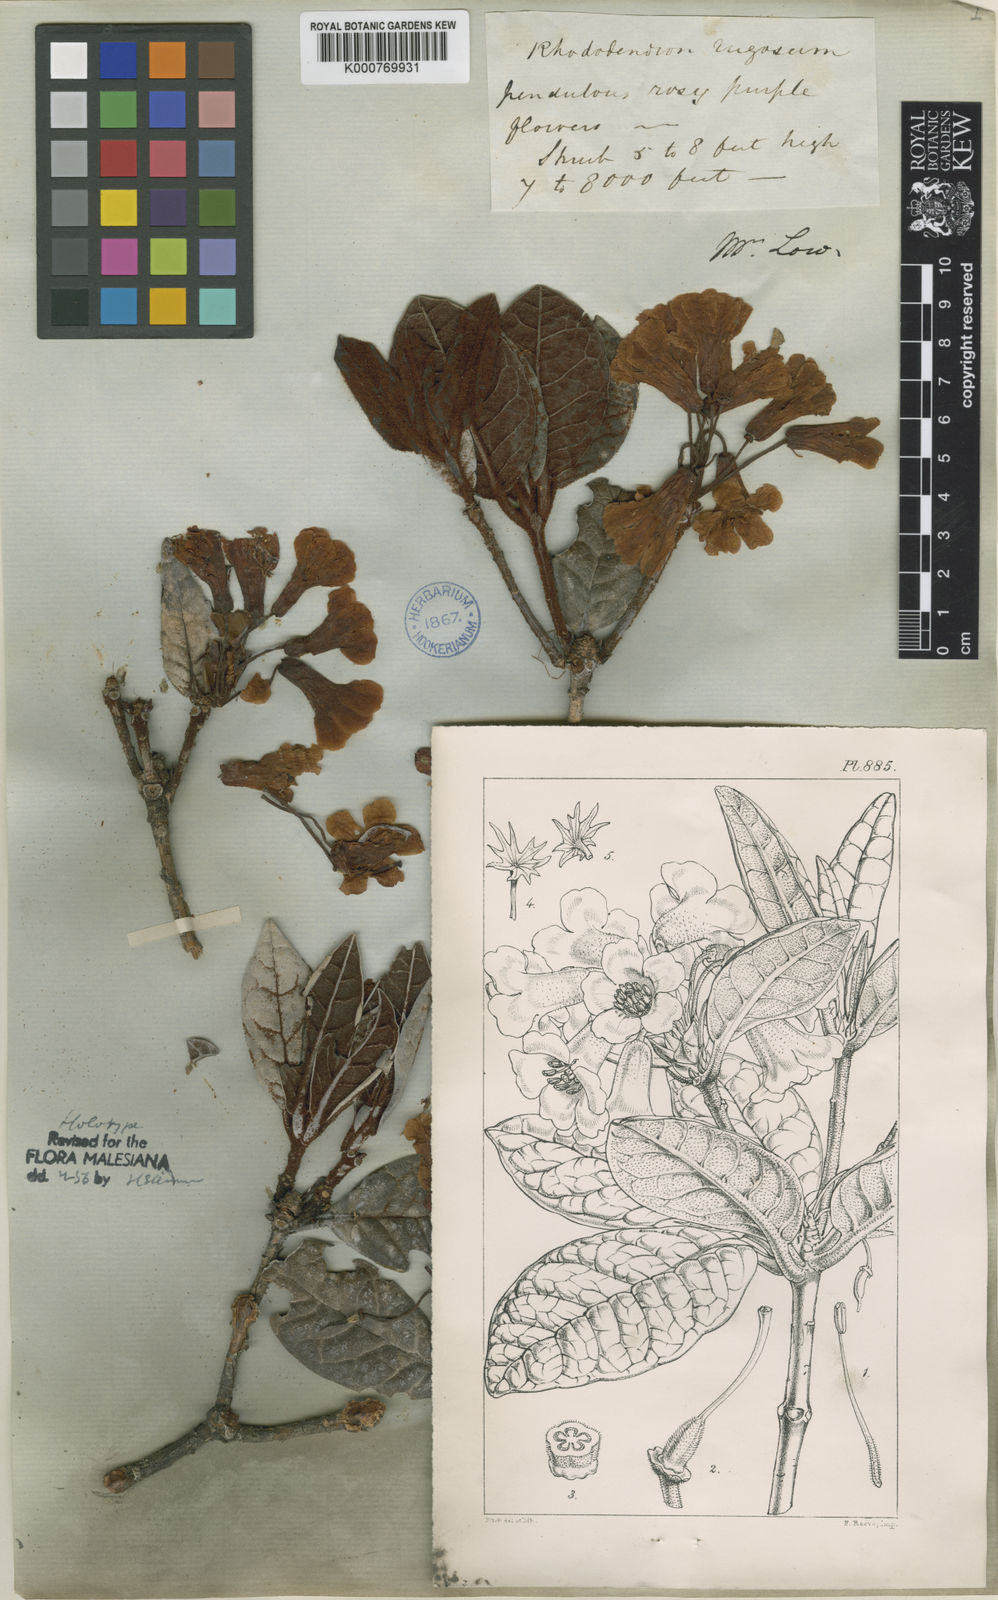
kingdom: Plantae
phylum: Tracheophyta
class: Magnoliopsida
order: Ericales
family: Ericaceae
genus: Rhododendron
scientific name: Rhododendron rugosum
